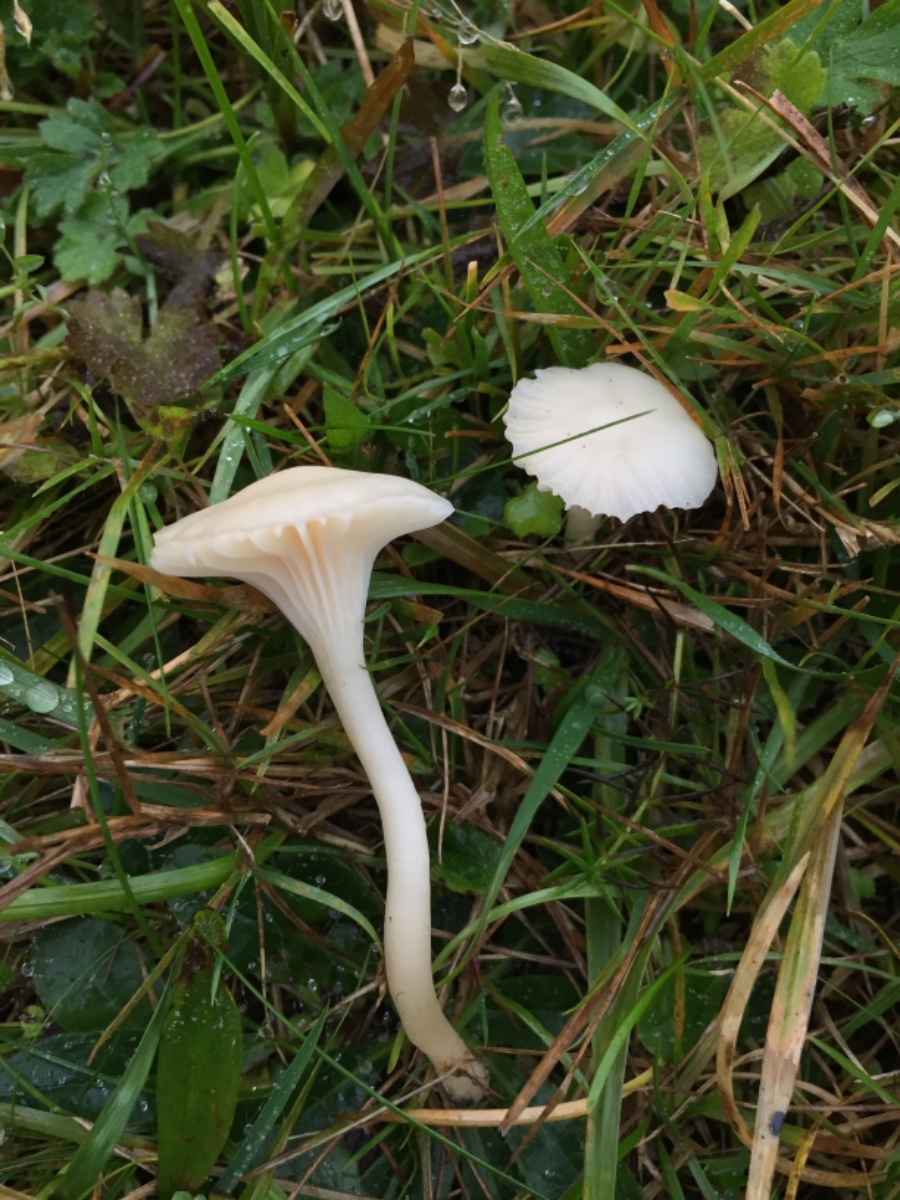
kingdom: Fungi
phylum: Basidiomycota
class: Agaricomycetes
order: Agaricales
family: Hygrophoraceae
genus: Cuphophyllus
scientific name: Cuphophyllus russocoriaceus
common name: ruslæder-vokshat
